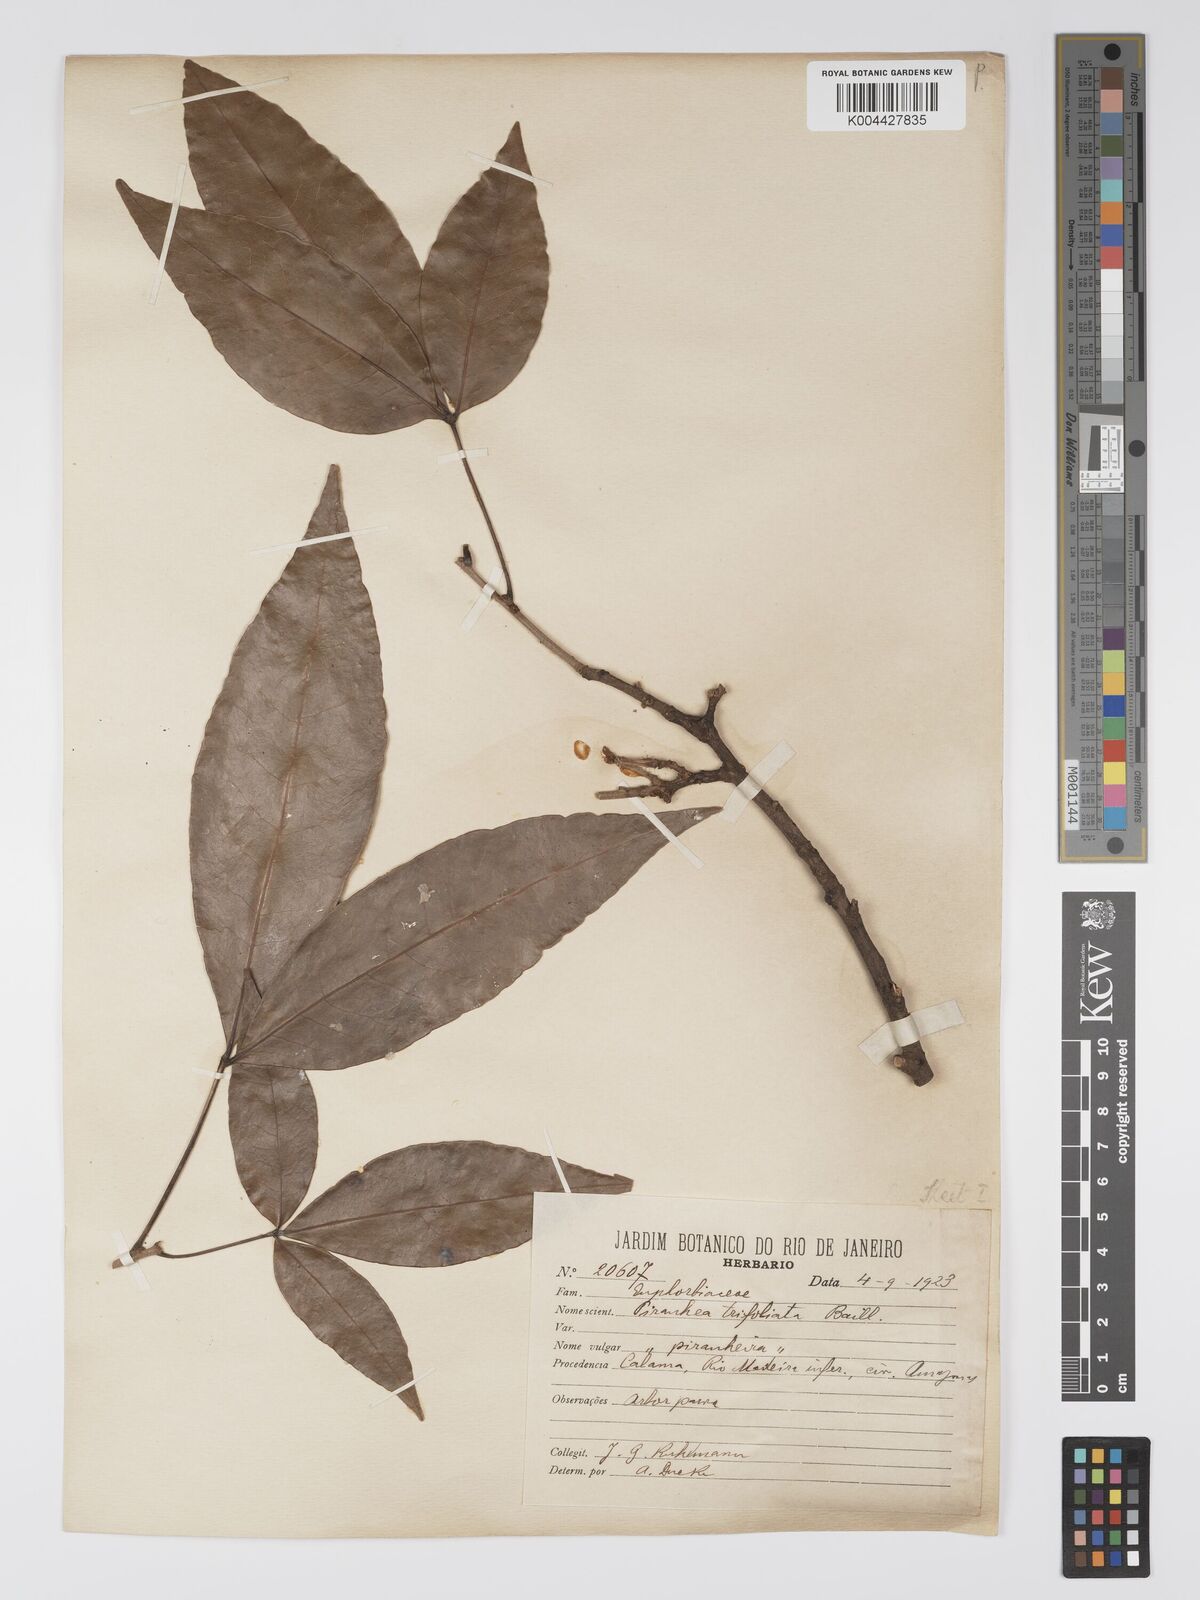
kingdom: Plantae
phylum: Tracheophyta
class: Magnoliopsida
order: Malpighiales
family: Picrodendraceae
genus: Piranhea
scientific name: Piranhea trifoliolata
